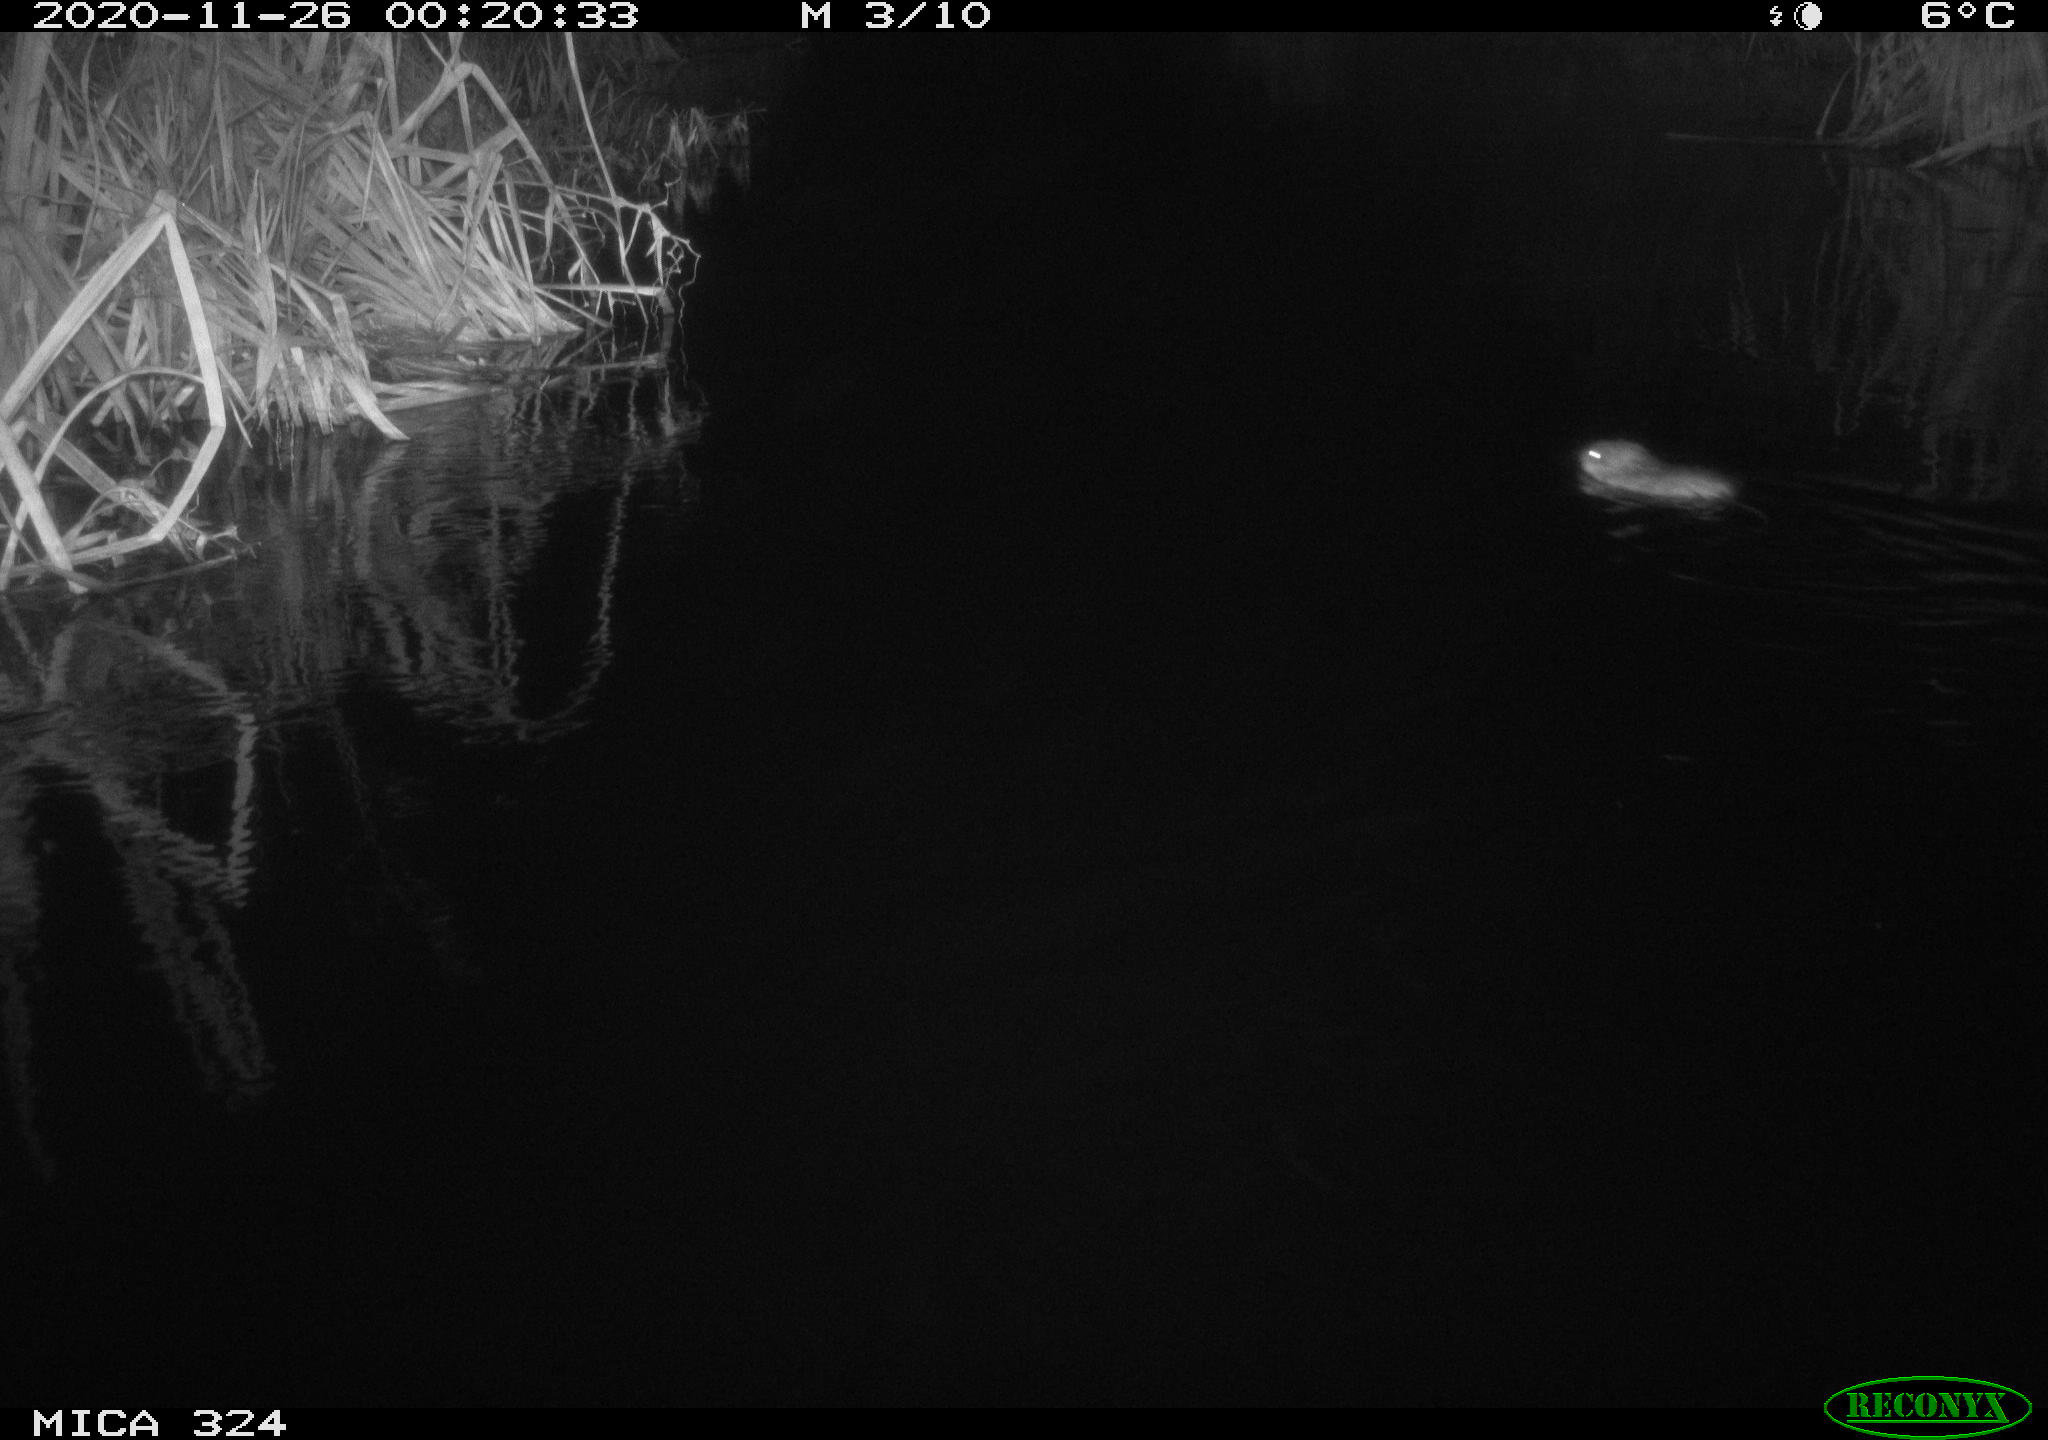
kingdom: Animalia
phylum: Chordata
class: Mammalia
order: Rodentia
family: Cricetidae
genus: Ondatra
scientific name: Ondatra zibethicus
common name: Muskrat
